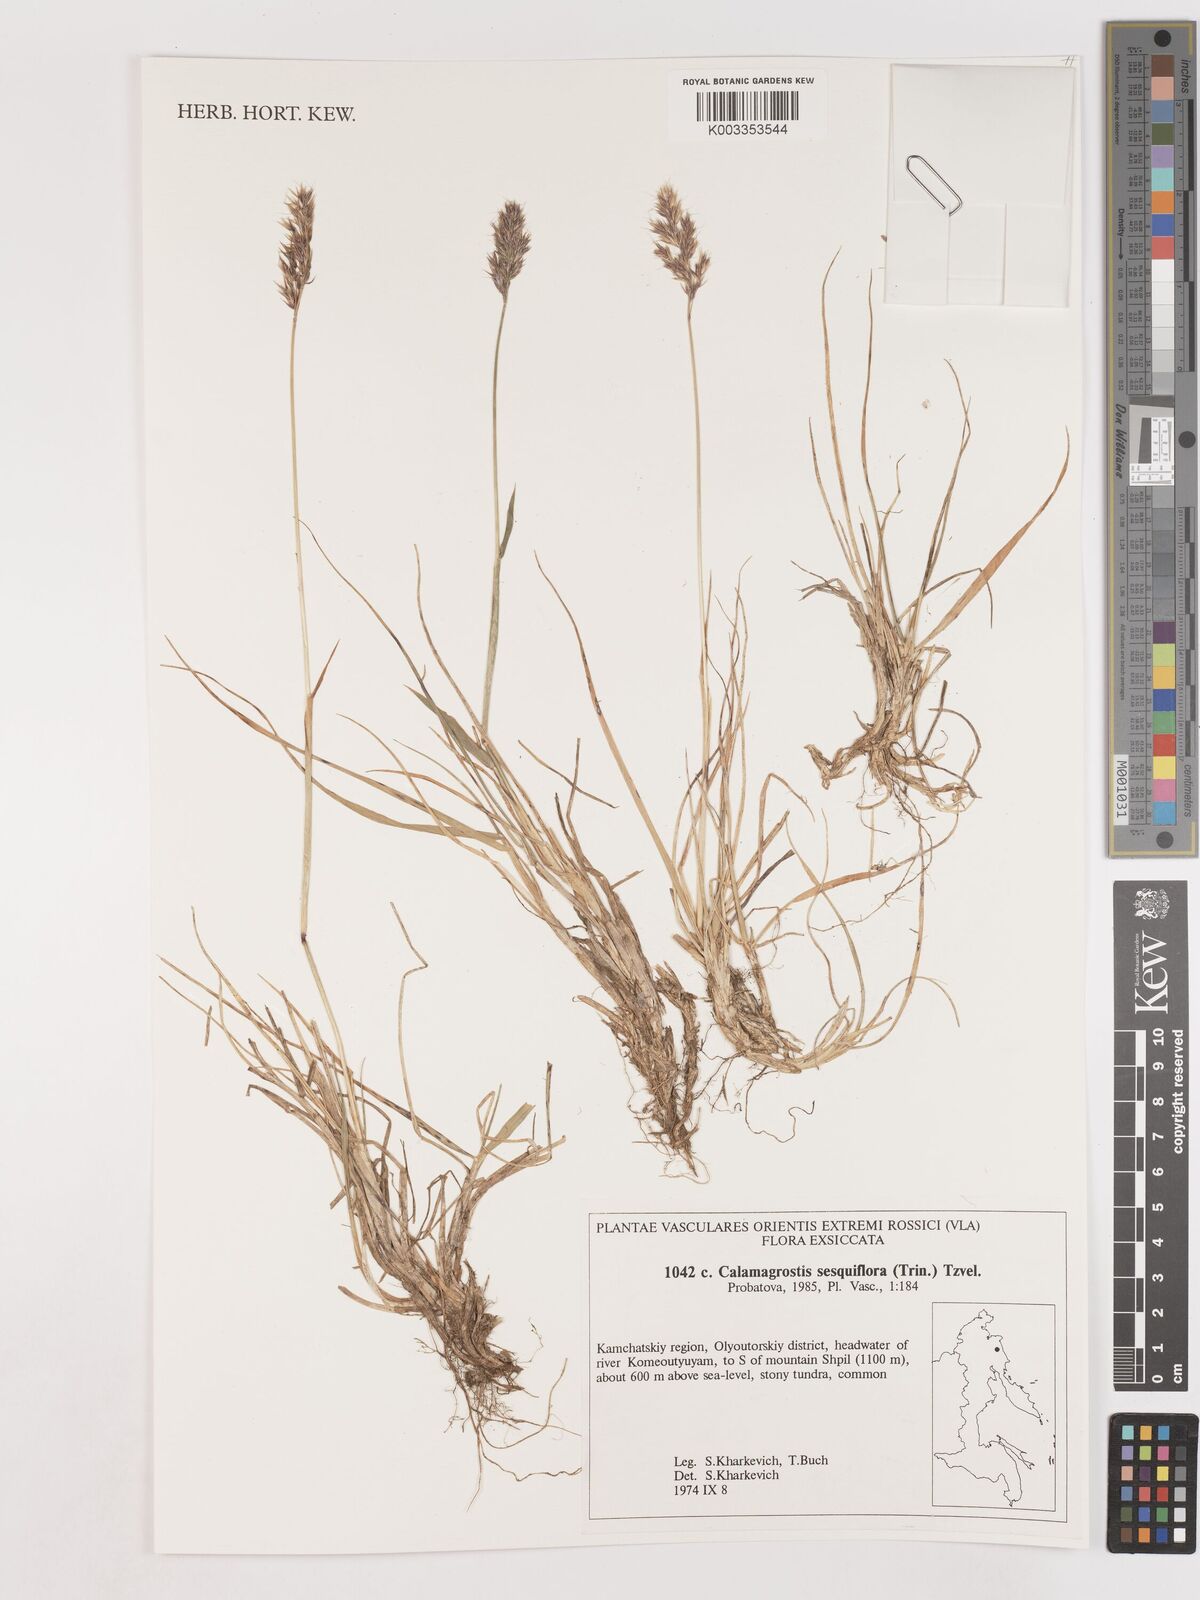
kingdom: Plantae
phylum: Tracheophyta
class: Liliopsida
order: Poales
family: Poaceae
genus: Podagrostis
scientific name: Podagrostis sesquiflora
